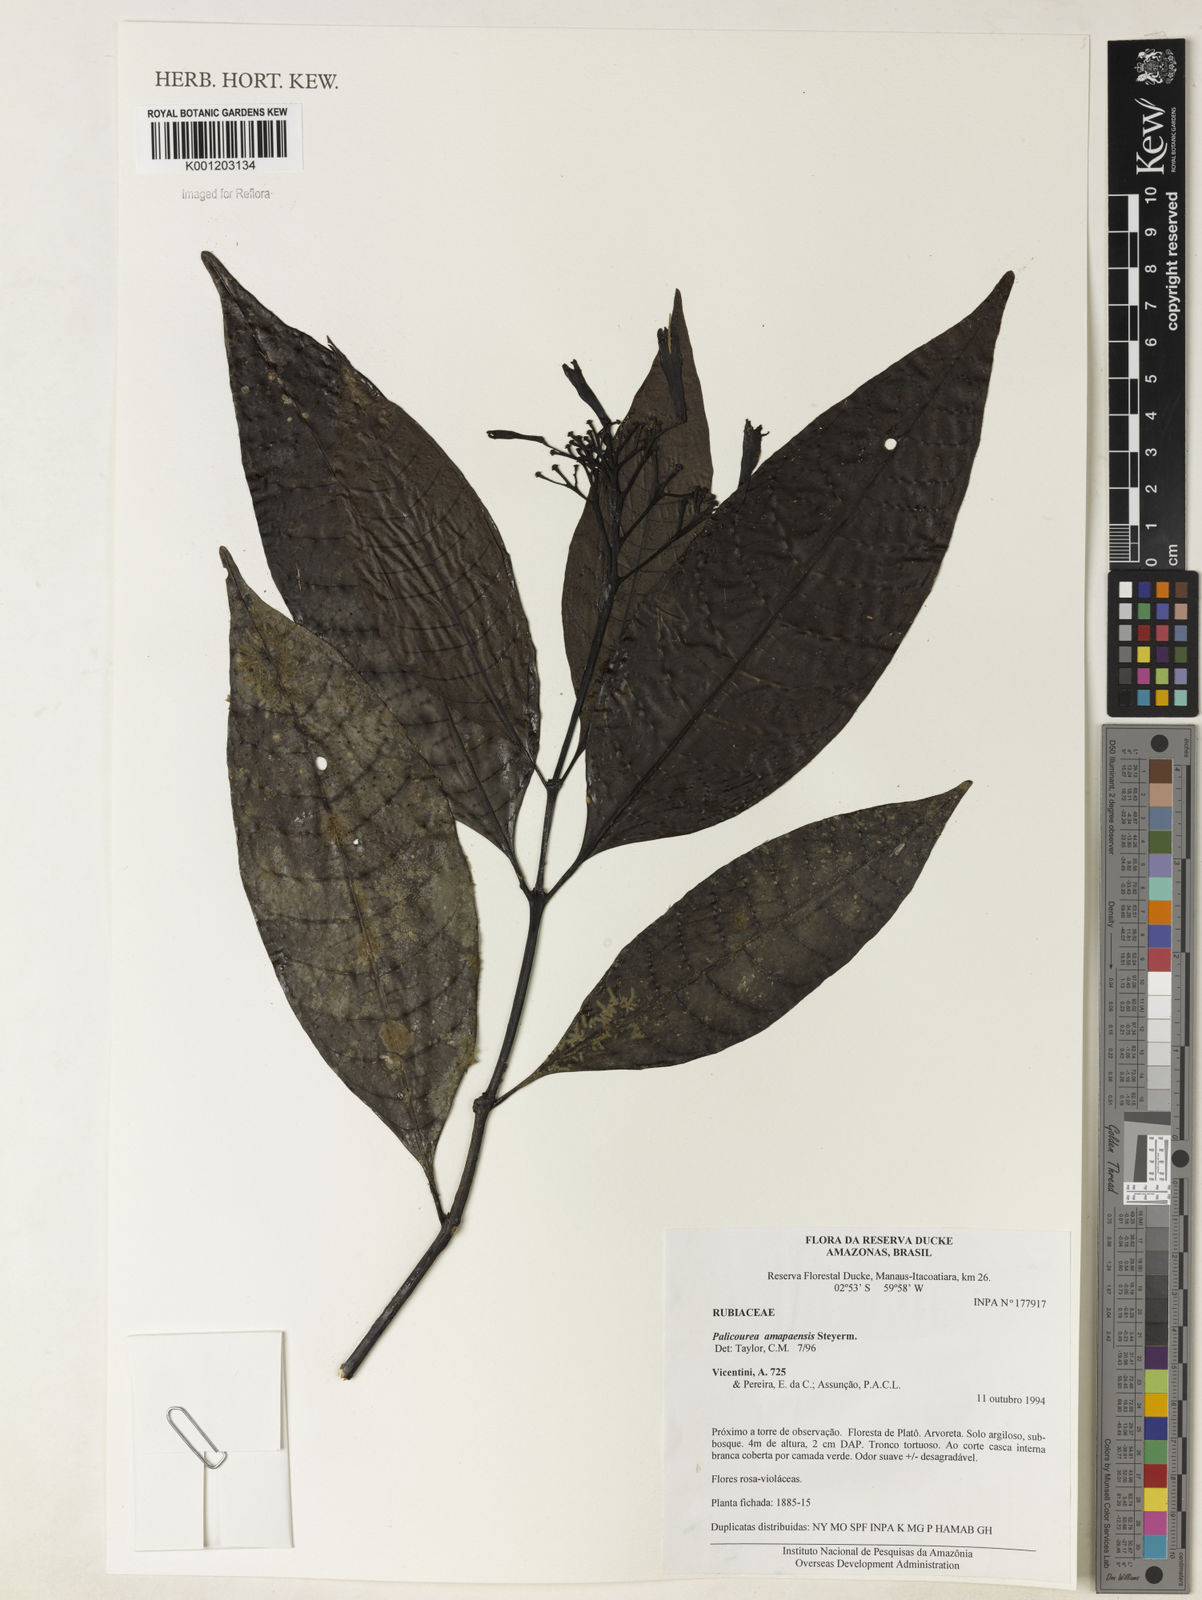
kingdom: Plantae
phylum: Tracheophyta
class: Magnoliopsida
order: Gentianales
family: Rubiaceae
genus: Palicourea
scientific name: Palicourea amapaensis
